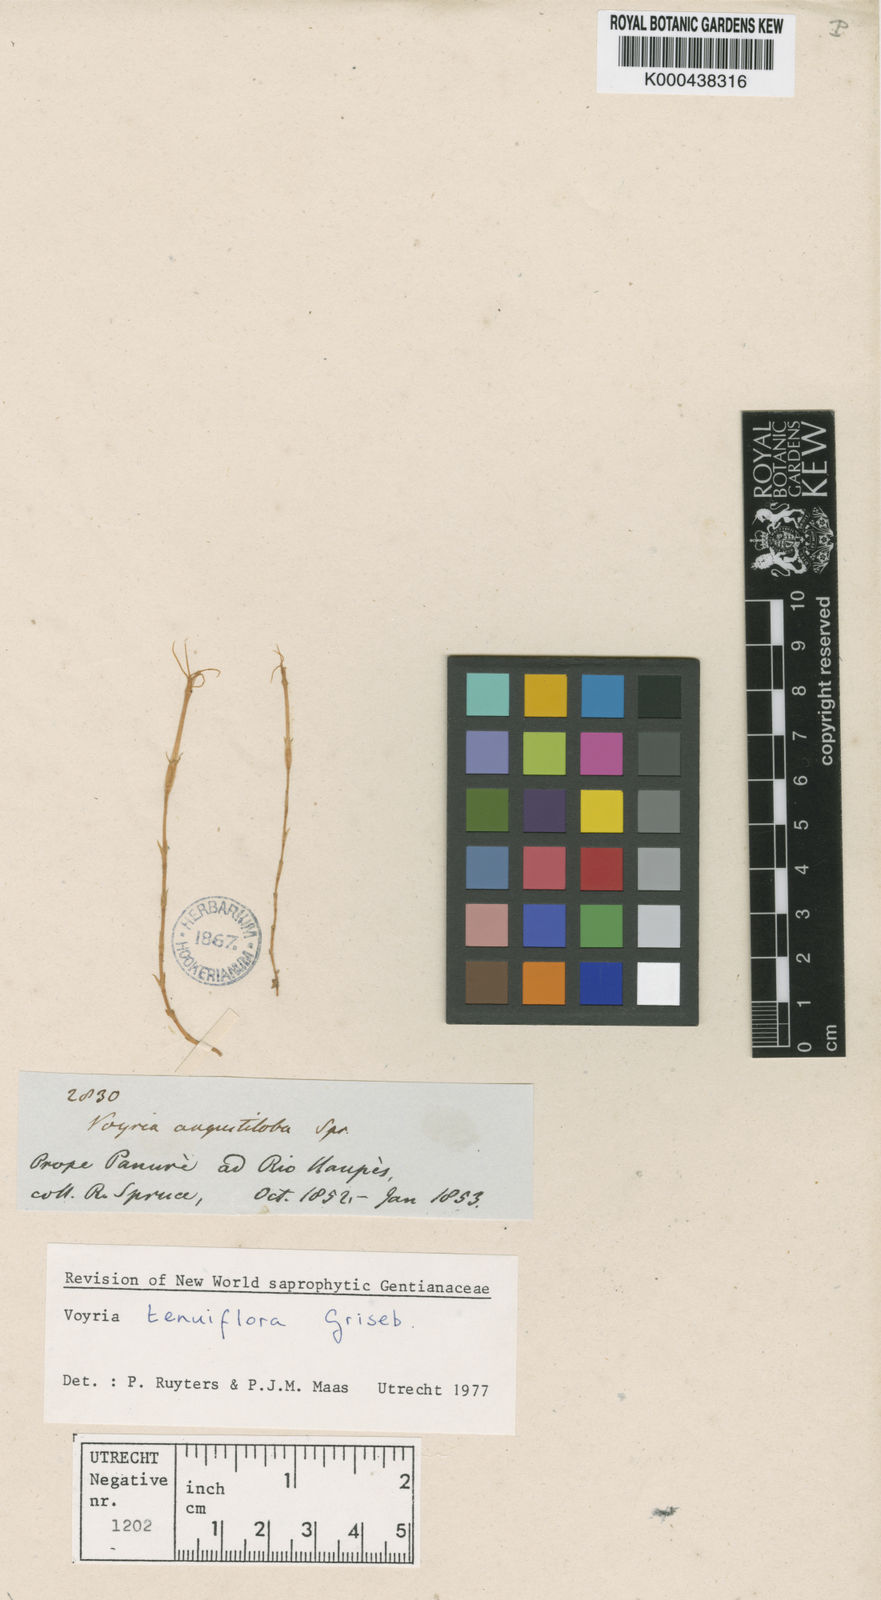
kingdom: Plantae
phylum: Tracheophyta
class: Magnoliopsida
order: Gentianales
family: Gentianaceae
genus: Voyria
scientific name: Voyria tenuiflora
